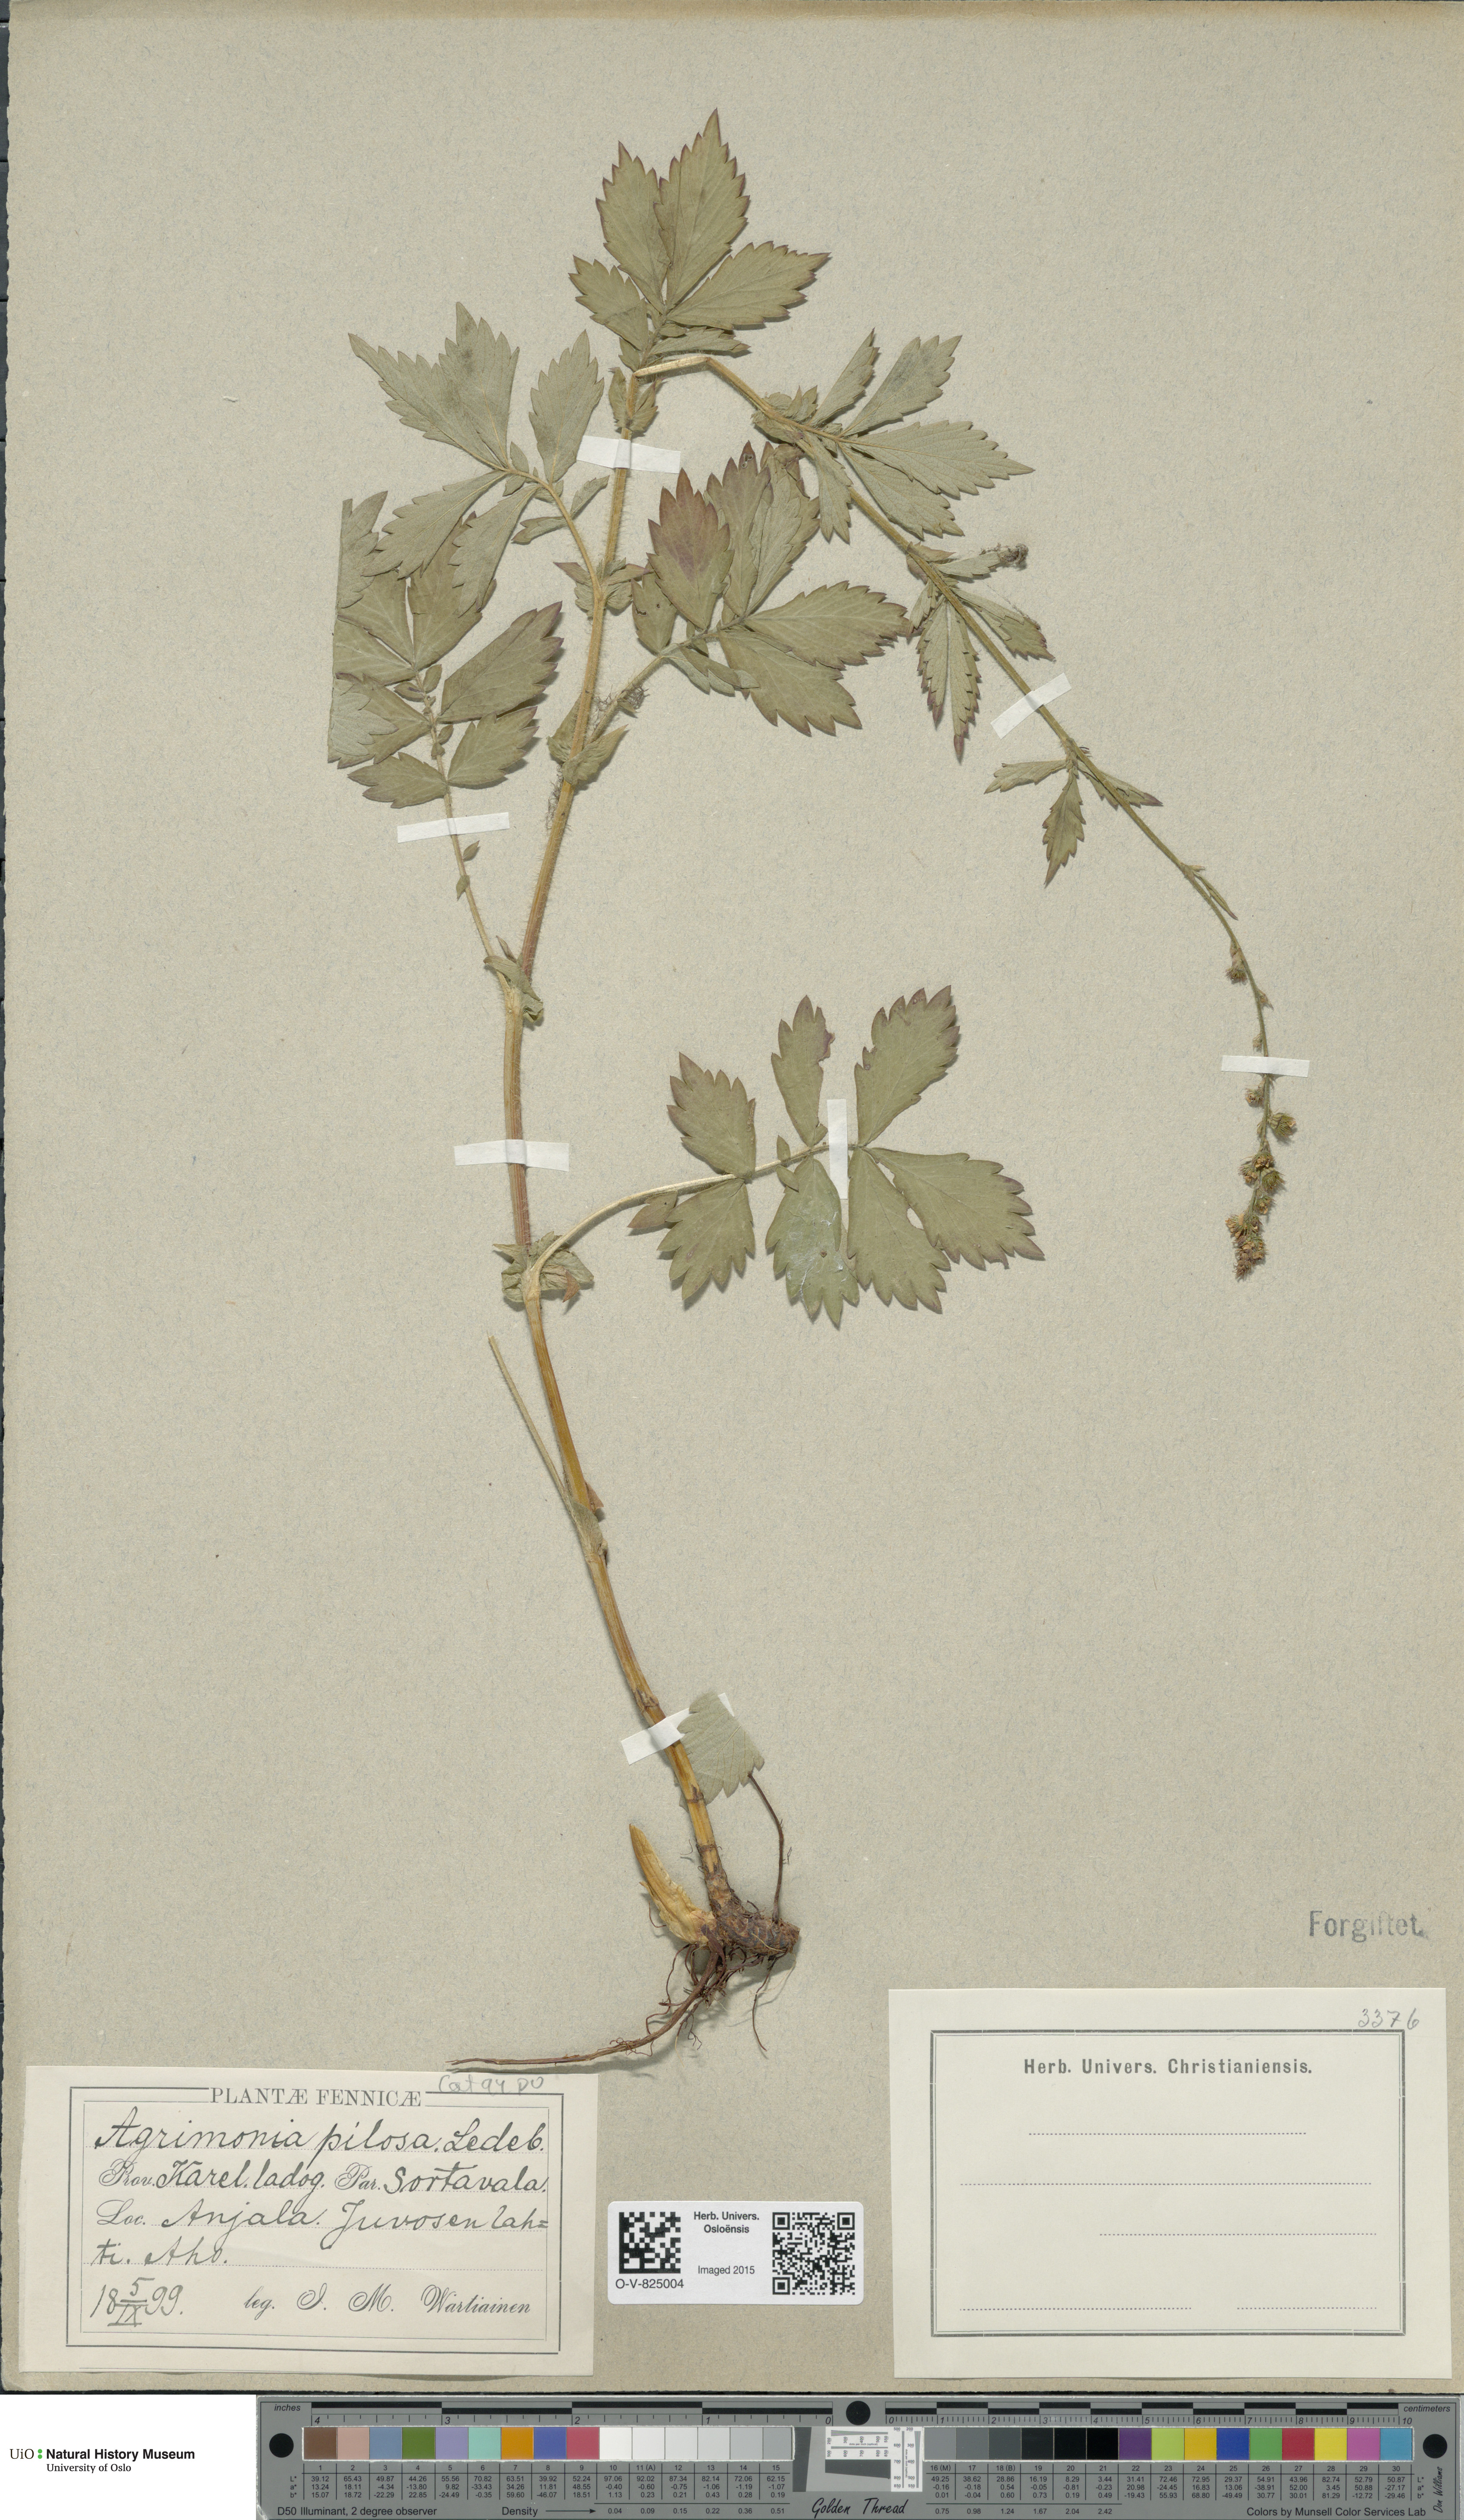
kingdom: Plantae
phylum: Tracheophyta
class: Magnoliopsida
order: Rosales
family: Rosaceae
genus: Agrimonia
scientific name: Agrimonia pilosa
